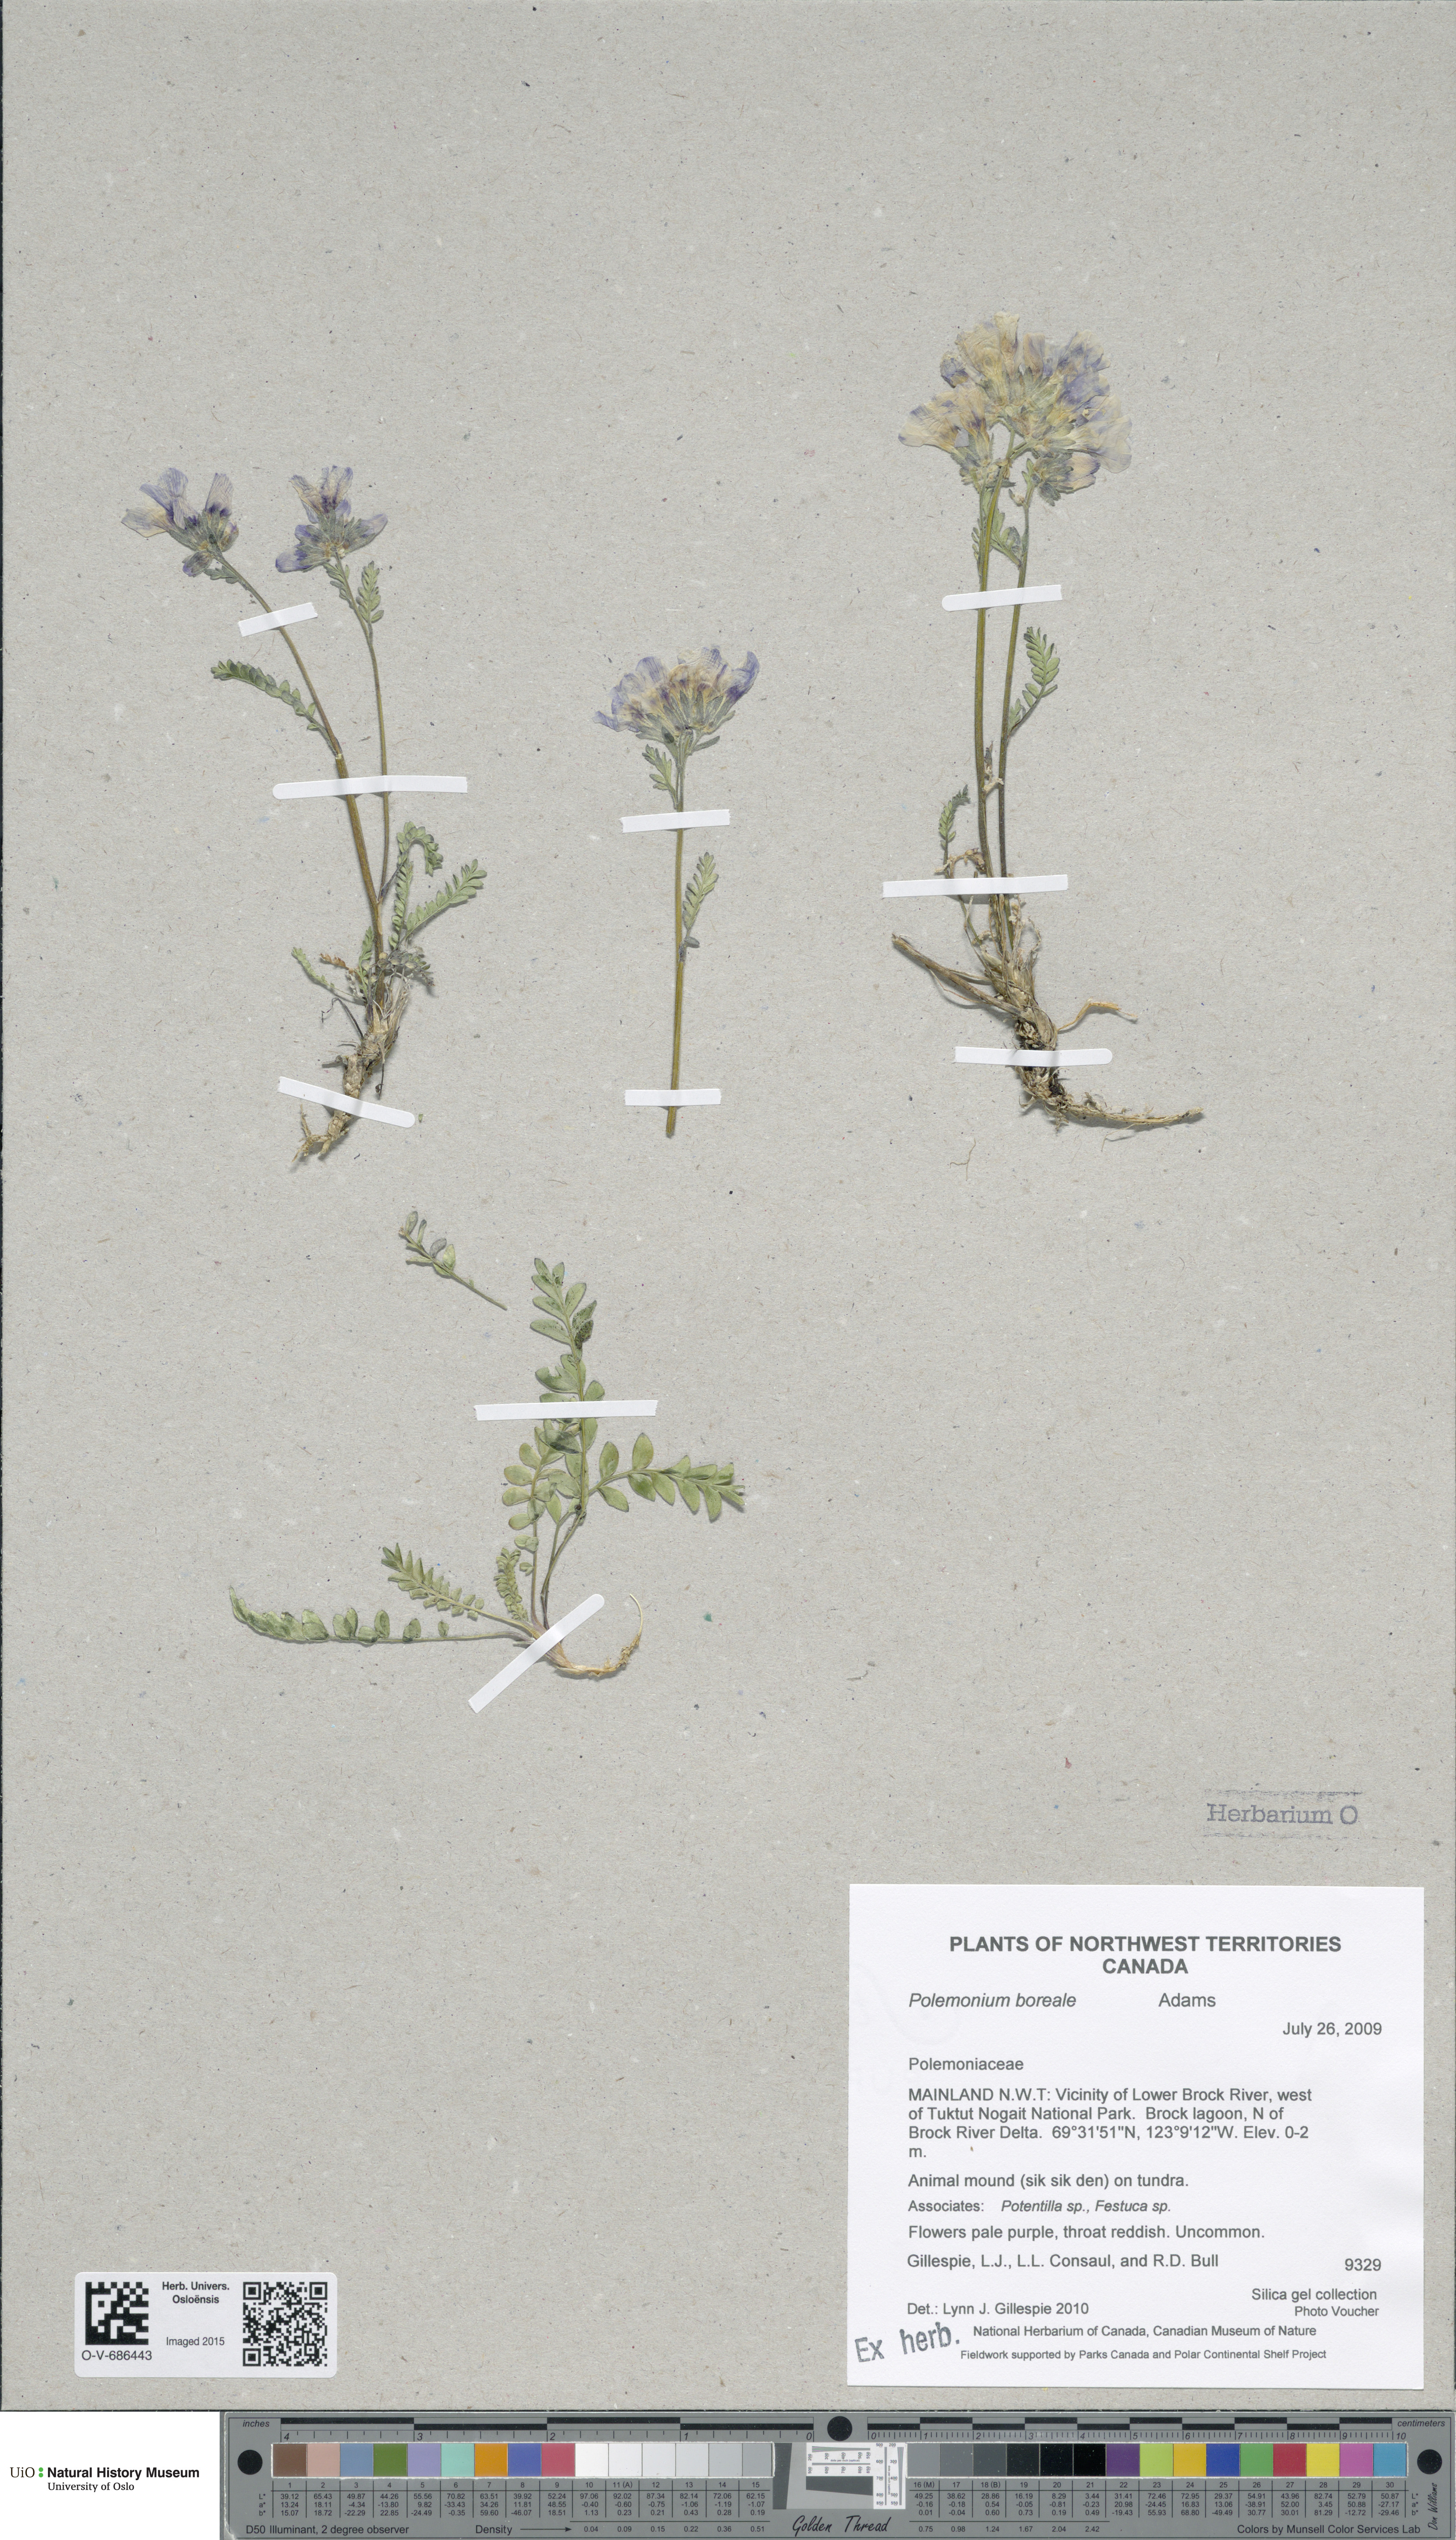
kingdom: Plantae
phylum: Tracheophyta
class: Magnoliopsida
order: Ericales
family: Polemoniaceae
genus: Polemonium
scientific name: Polemonium boreale
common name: Boreal jacob's-ladder
